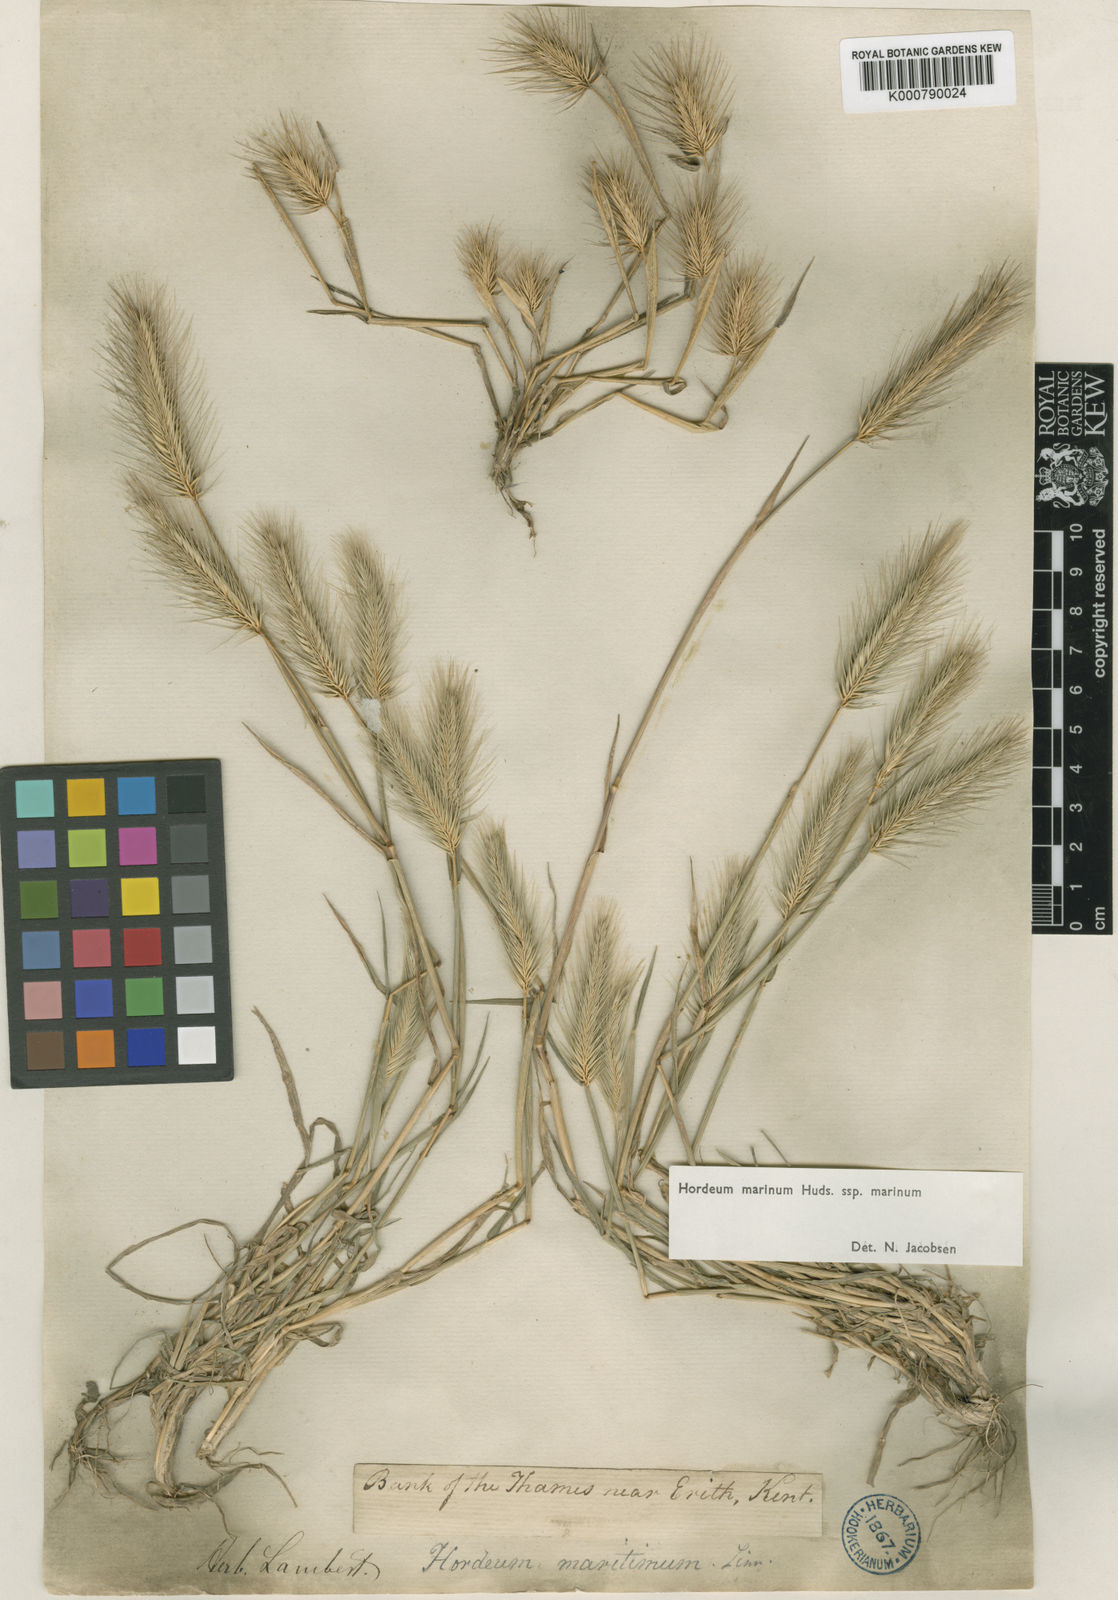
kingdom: Plantae
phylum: Tracheophyta
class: Liliopsida
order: Poales
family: Poaceae
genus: Hordeum
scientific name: Hordeum marinum
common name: Sea barley
